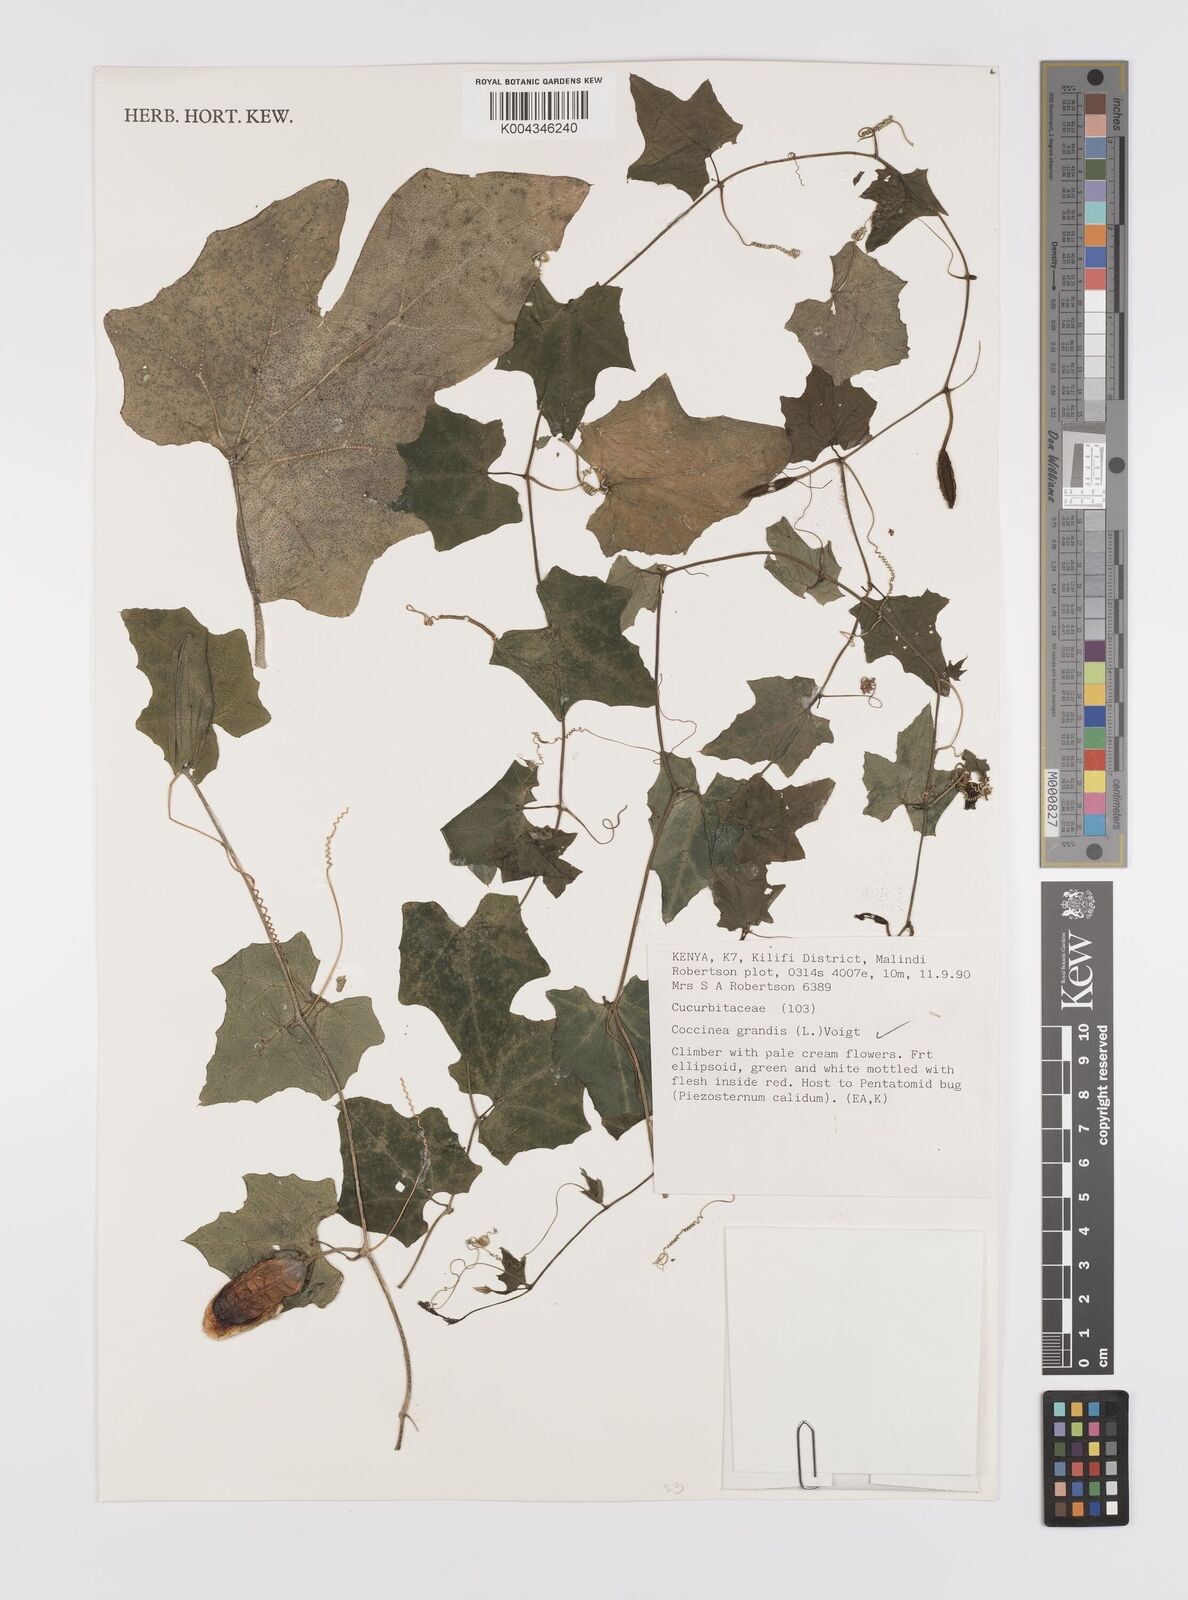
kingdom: Plantae
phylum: Tracheophyta
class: Magnoliopsida
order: Cucurbitales
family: Cucurbitaceae
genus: Coccinia
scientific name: Coccinia grandis
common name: Ivy gourd
